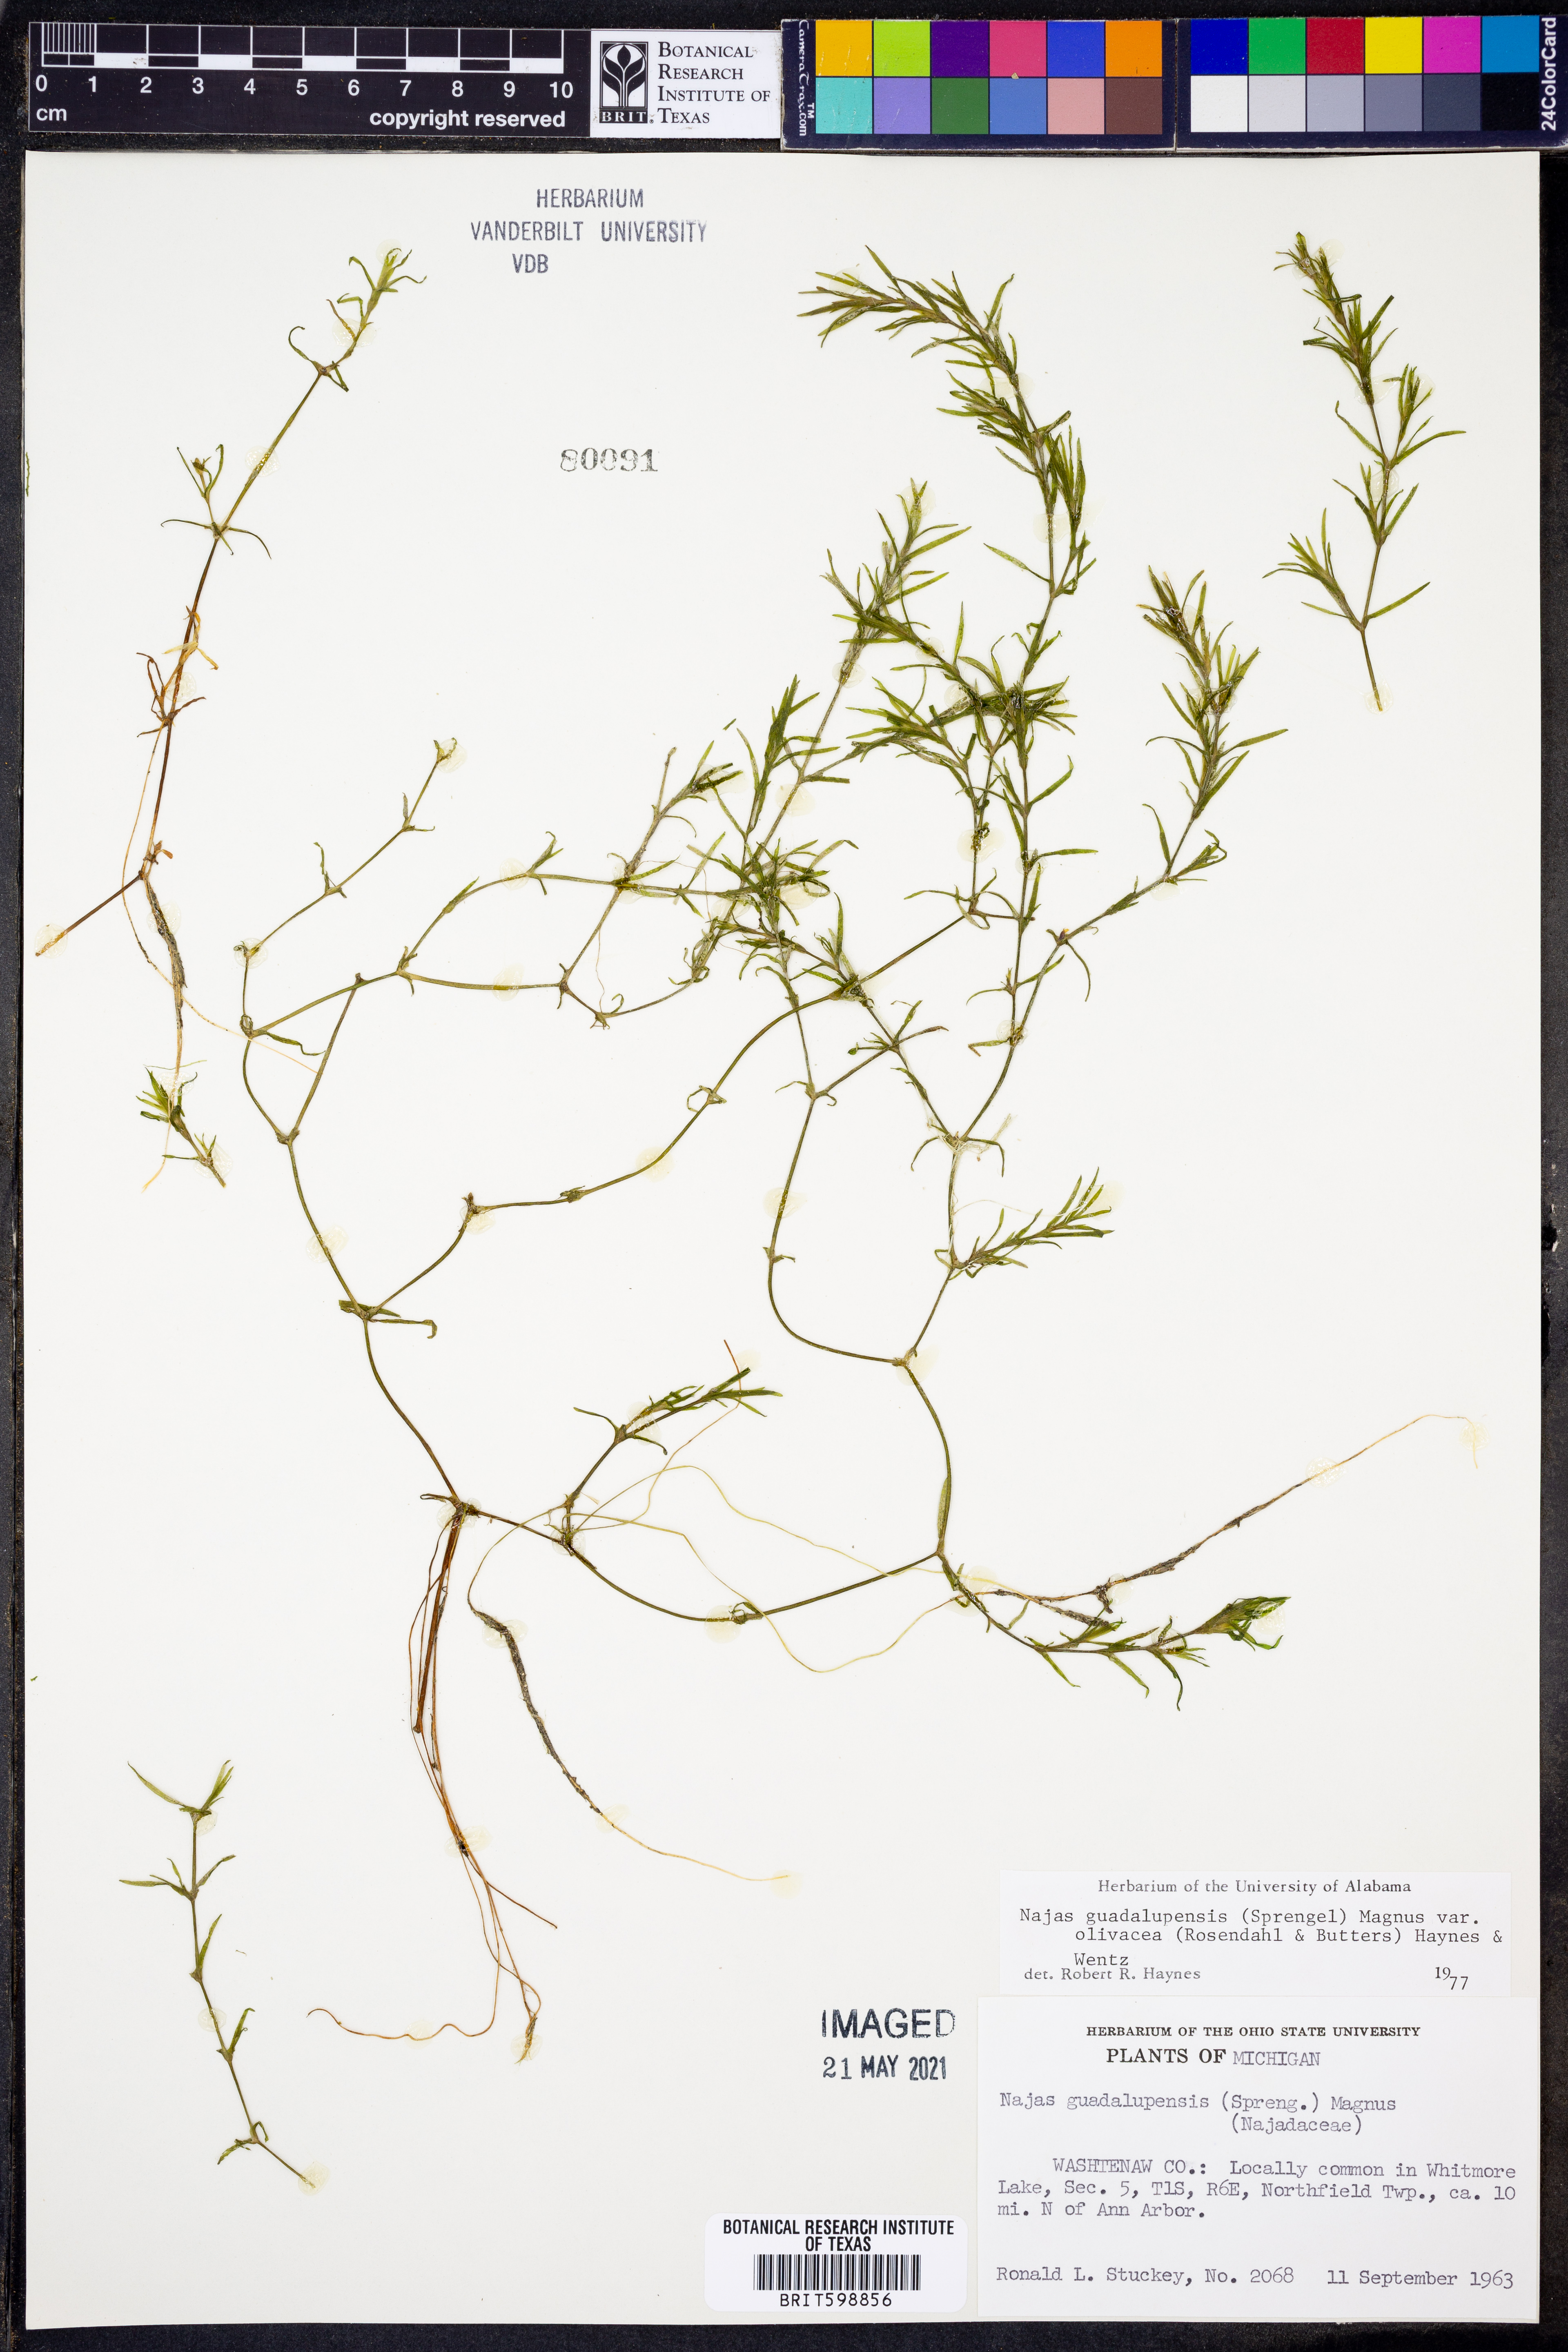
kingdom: Plantae
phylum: Tracheophyta
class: Liliopsida
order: Alismatales
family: Hydrocharitaceae
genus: Najas
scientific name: Najas guadalupensis
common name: Southern naiad
